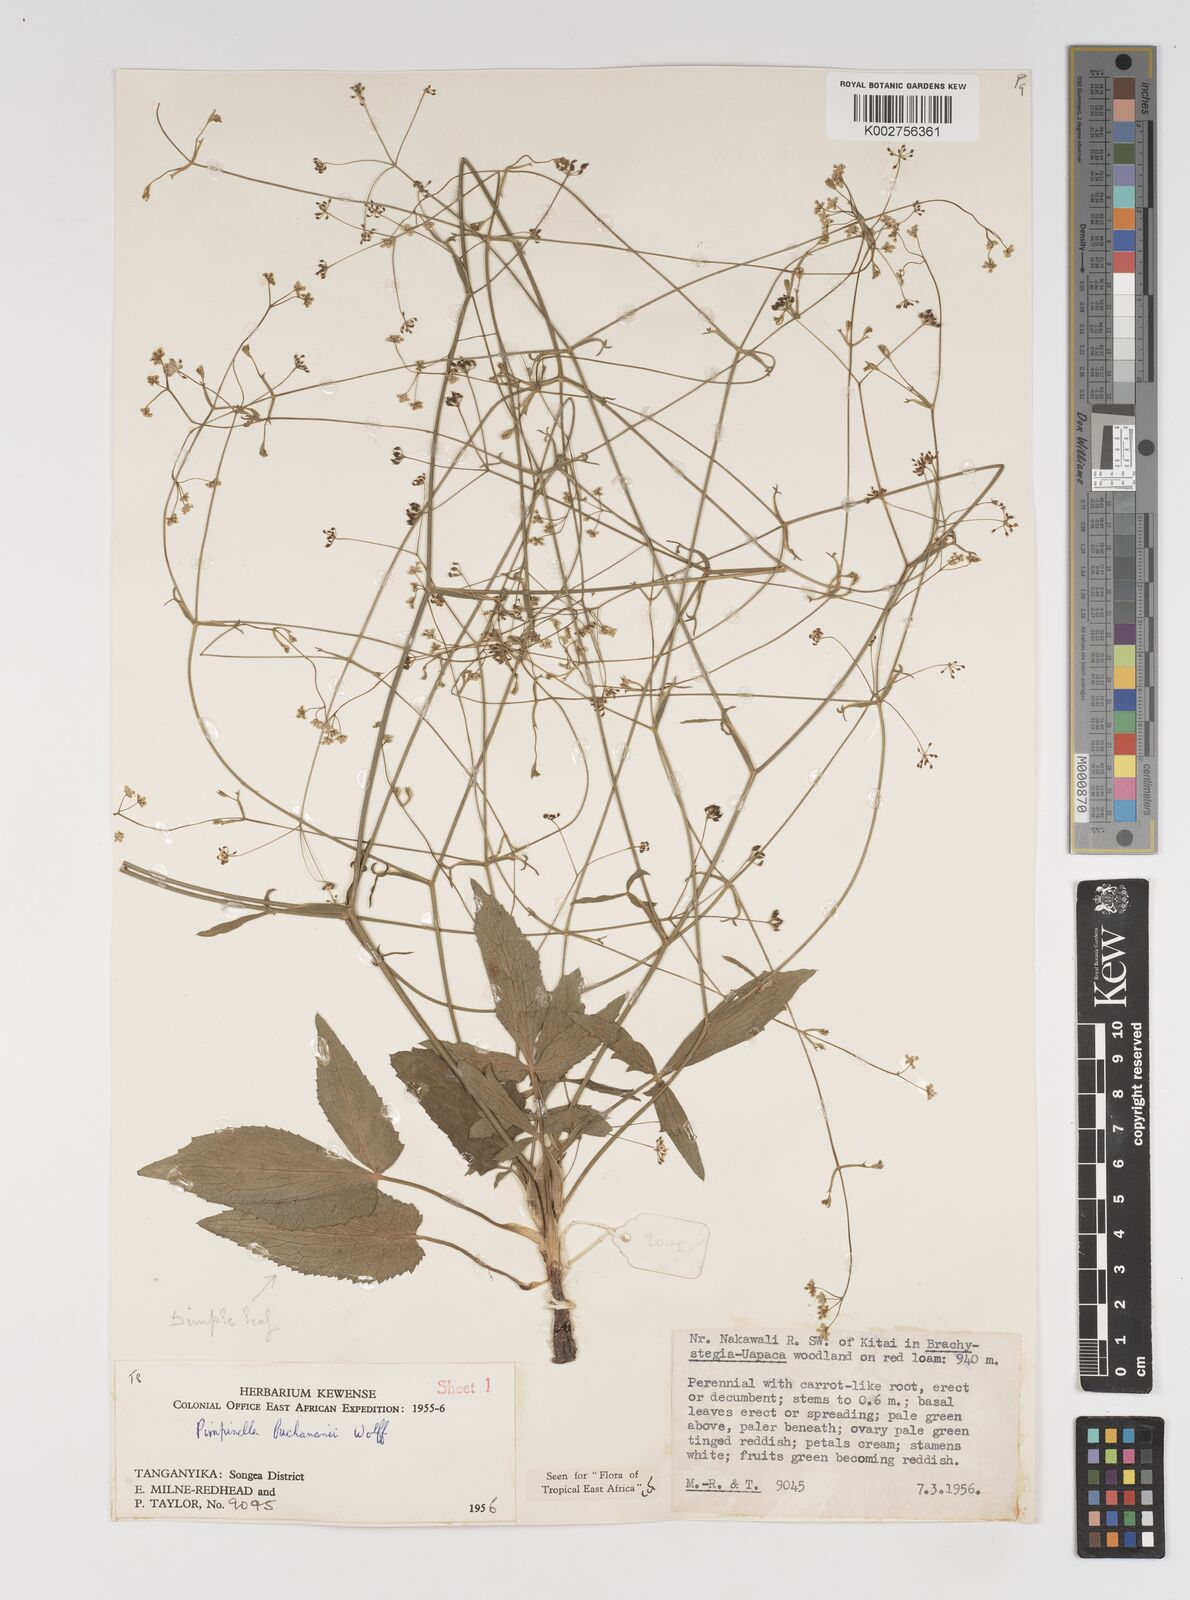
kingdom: Plantae
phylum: Tracheophyta
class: Magnoliopsida
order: Apiales
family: Apiaceae
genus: Pimpinella
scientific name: Pimpinella buchananii
